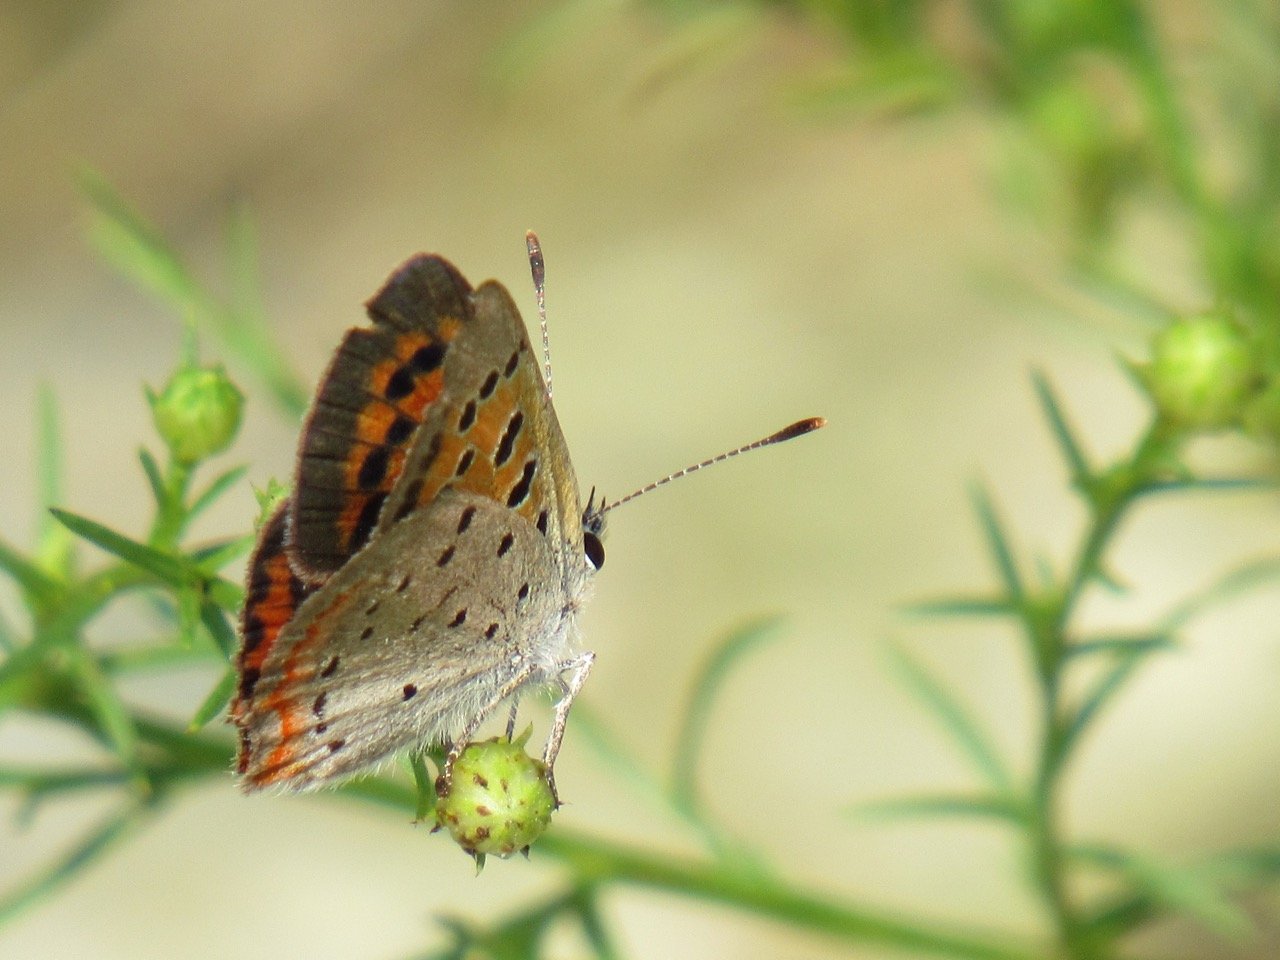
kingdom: Animalia
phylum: Arthropoda
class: Insecta
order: Lepidoptera
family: Lycaenidae
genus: Lycaena
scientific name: Lycaena phlaeas
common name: American Copper
